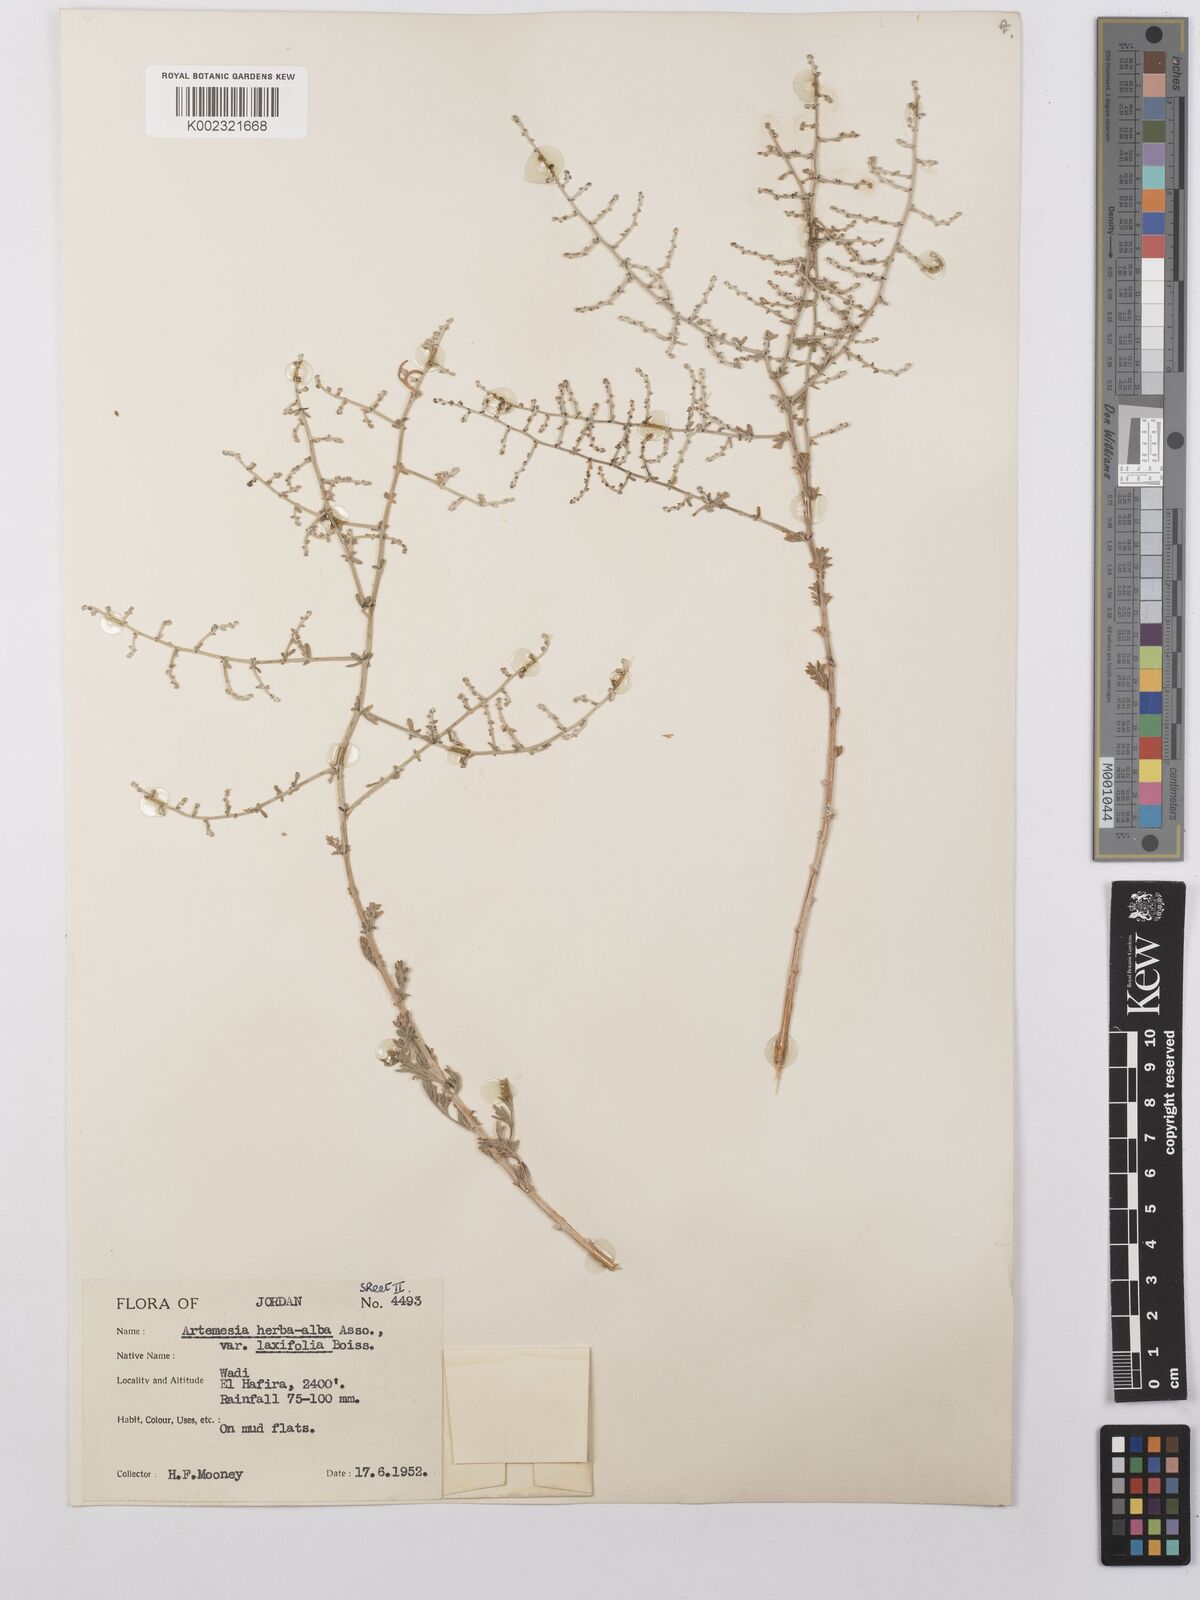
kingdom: Plantae
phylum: Tracheophyta
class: Magnoliopsida
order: Asterales
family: Asteraceae
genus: Artemisia
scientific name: Artemisia herba-alba
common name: White wormwood
